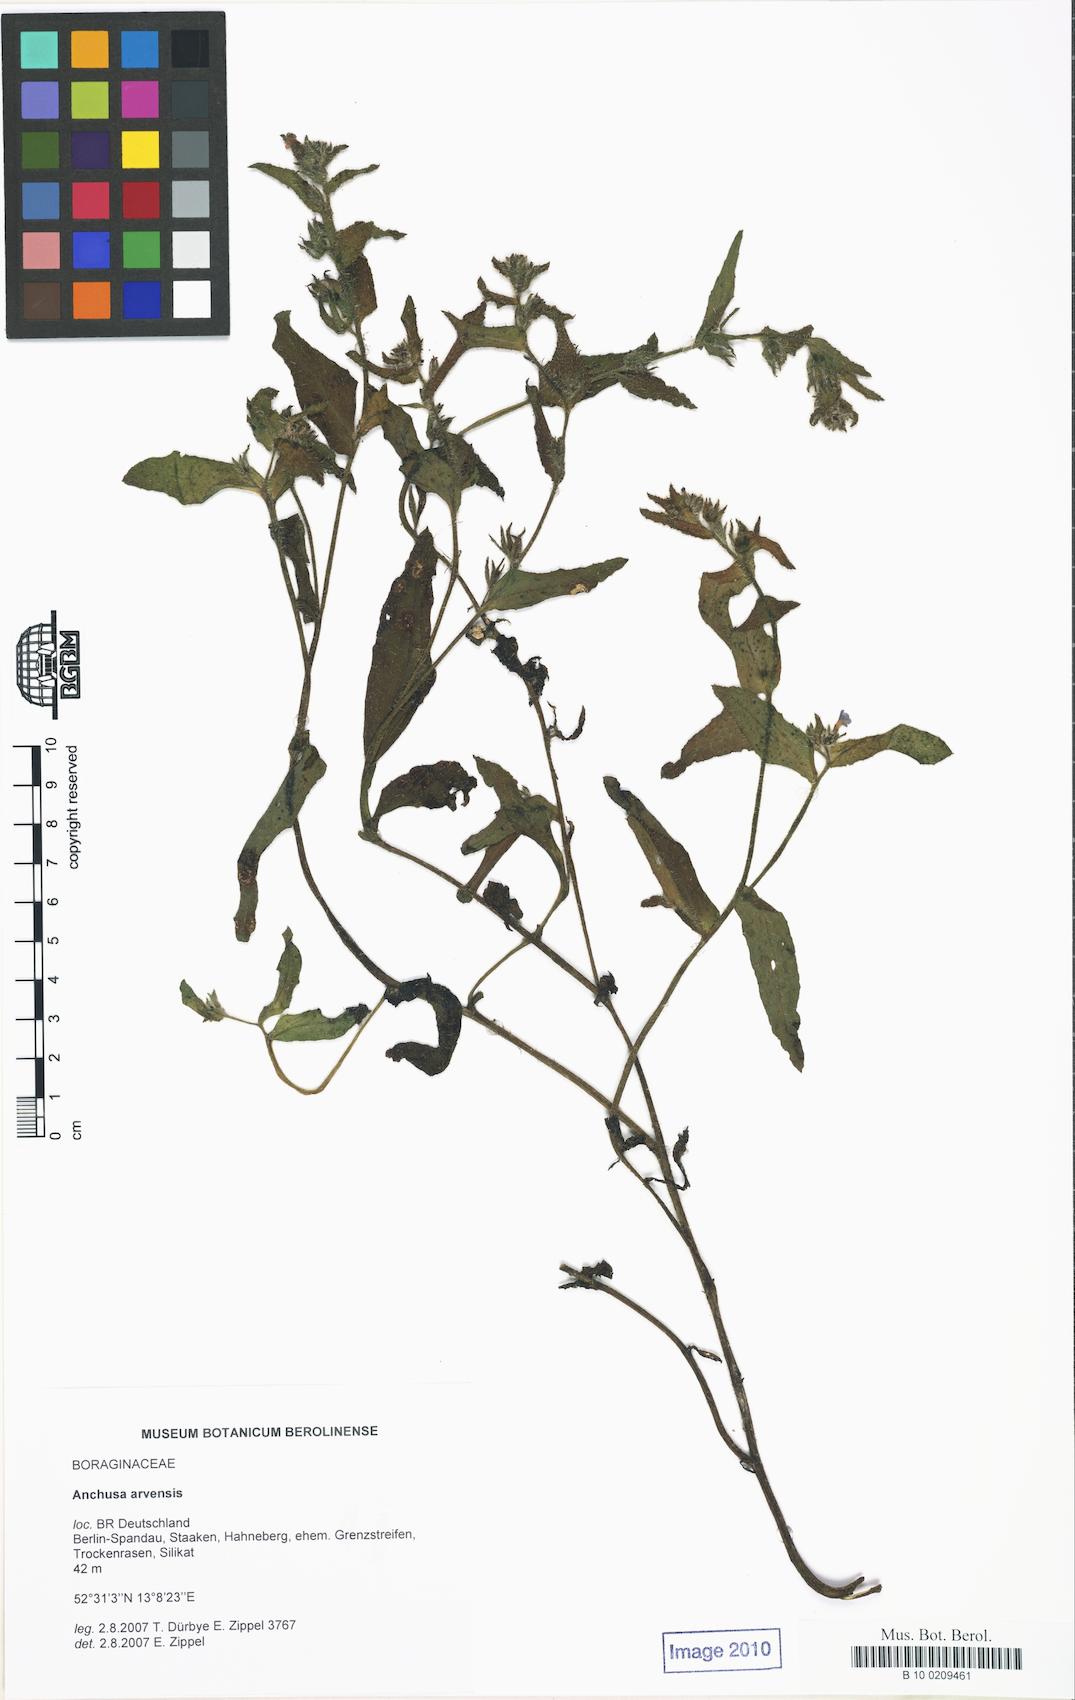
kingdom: Plantae
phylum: Tracheophyta
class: Magnoliopsida
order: Boraginales
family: Boraginaceae
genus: Lycopsis
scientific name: Lycopsis arvensis
